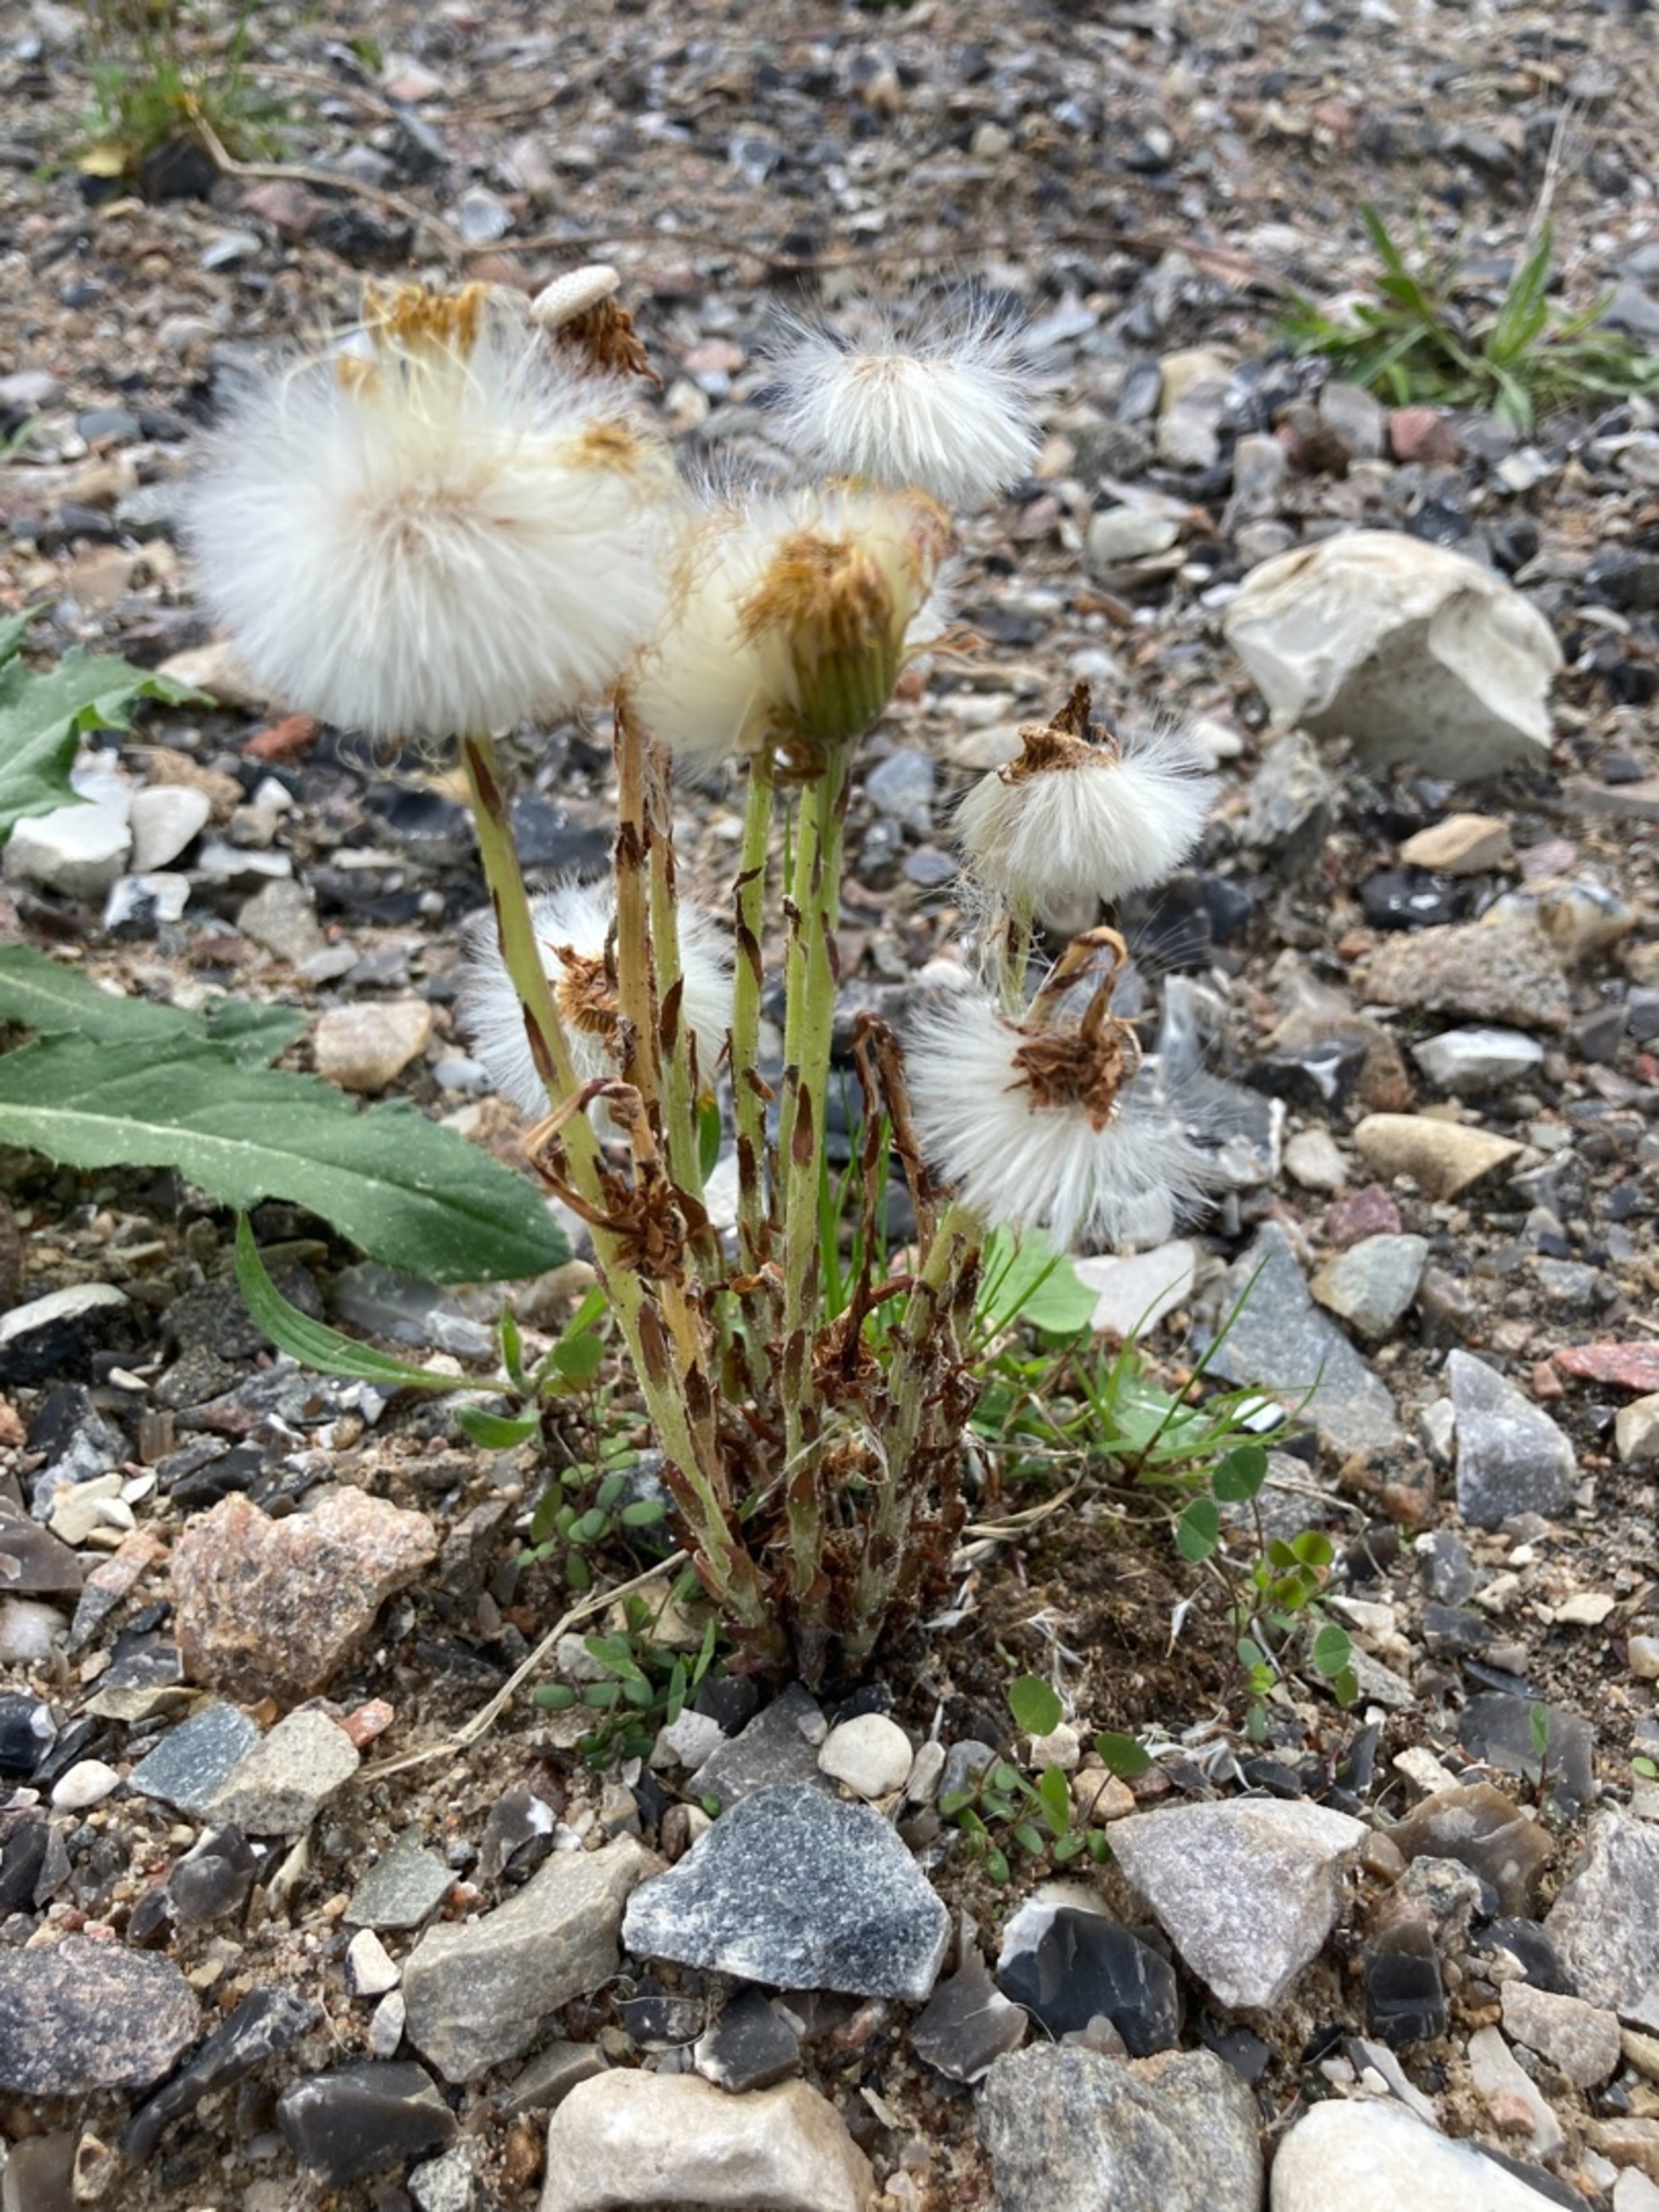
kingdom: Plantae
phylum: Tracheophyta
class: Magnoliopsida
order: Asterales
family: Asteraceae
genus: Tussilago
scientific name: Tussilago farfara
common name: Følfod
